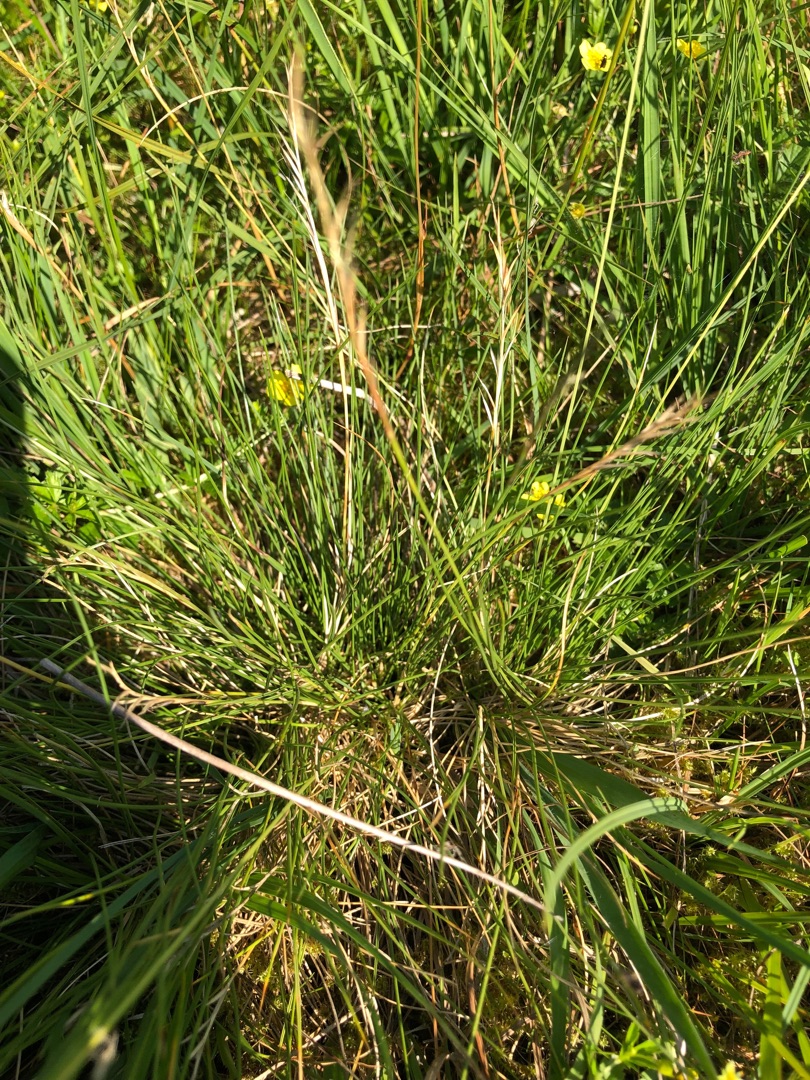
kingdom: Plantae
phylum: Tracheophyta
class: Liliopsida
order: Poales
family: Poaceae
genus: Nardus
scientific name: Nardus stricta
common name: Katteskæg
